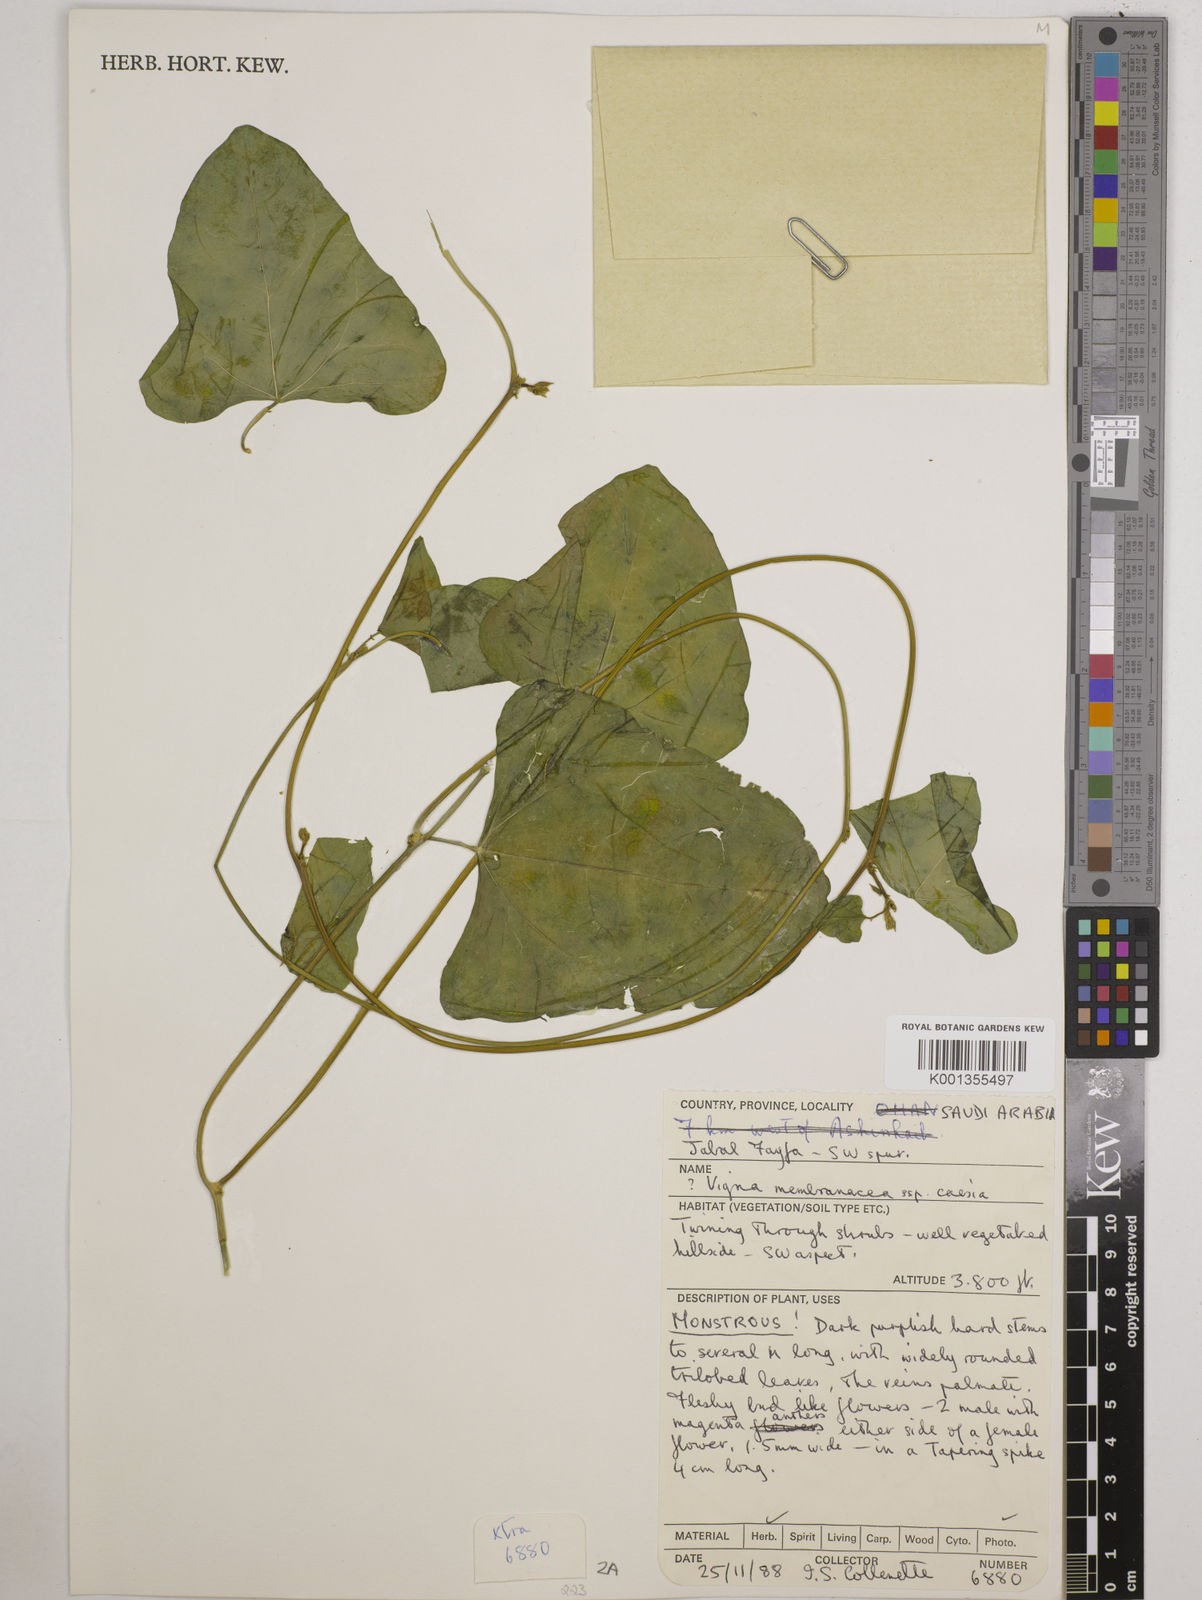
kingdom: Plantae
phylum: Tracheophyta
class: Magnoliopsida
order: Fabales
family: Fabaceae
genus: Vigna
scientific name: Vigna membranacea
